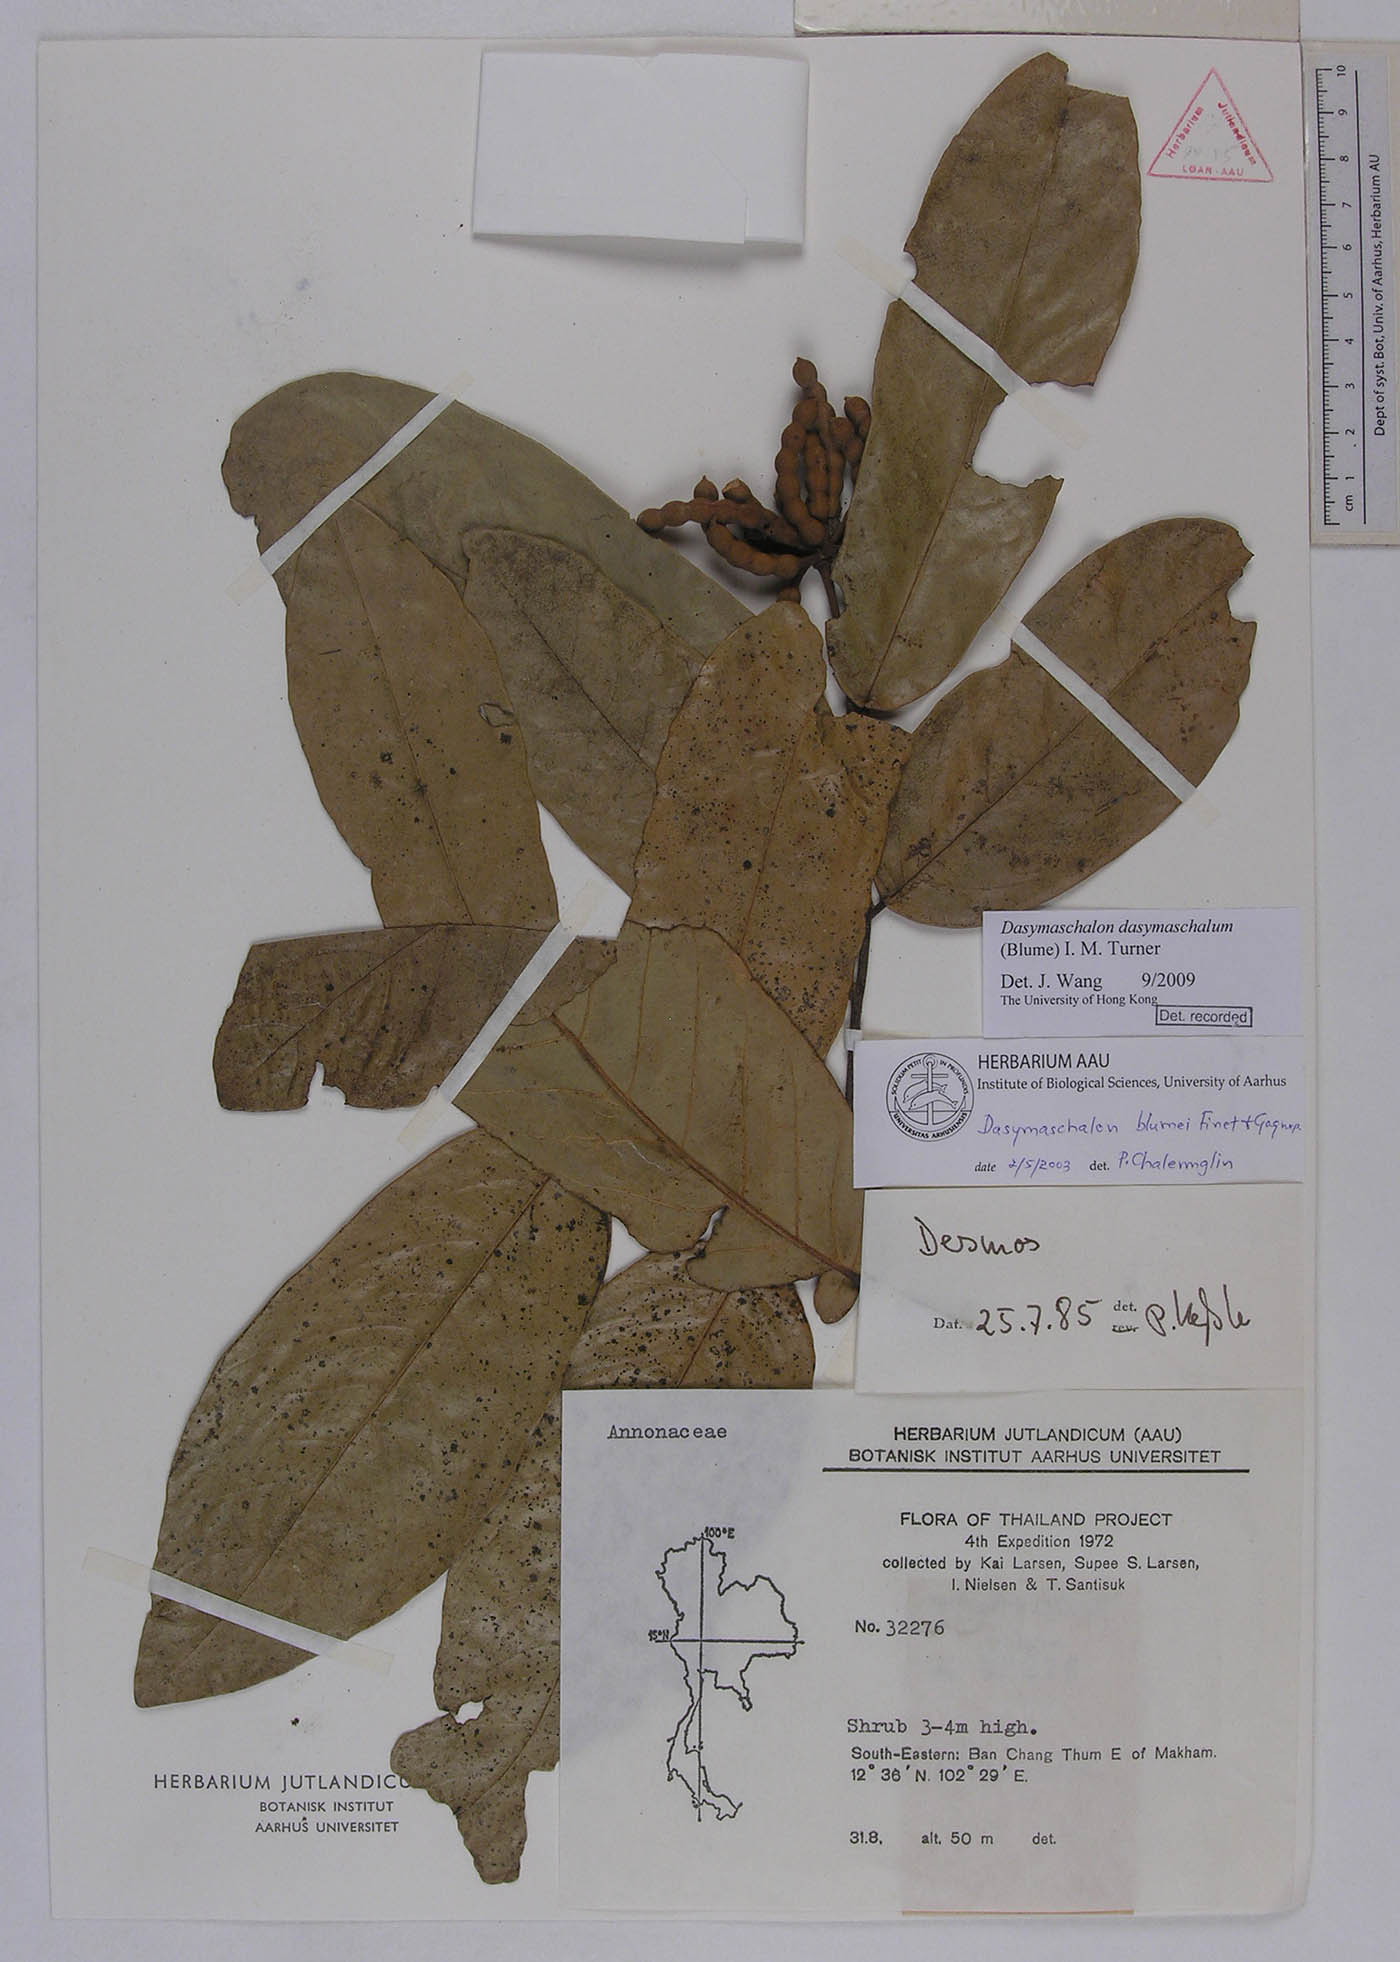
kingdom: Plantae
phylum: Tracheophyta
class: Magnoliopsida
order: Magnoliales
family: Annonaceae
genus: Dasymaschalon
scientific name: Dasymaschalon dasymaschalum
